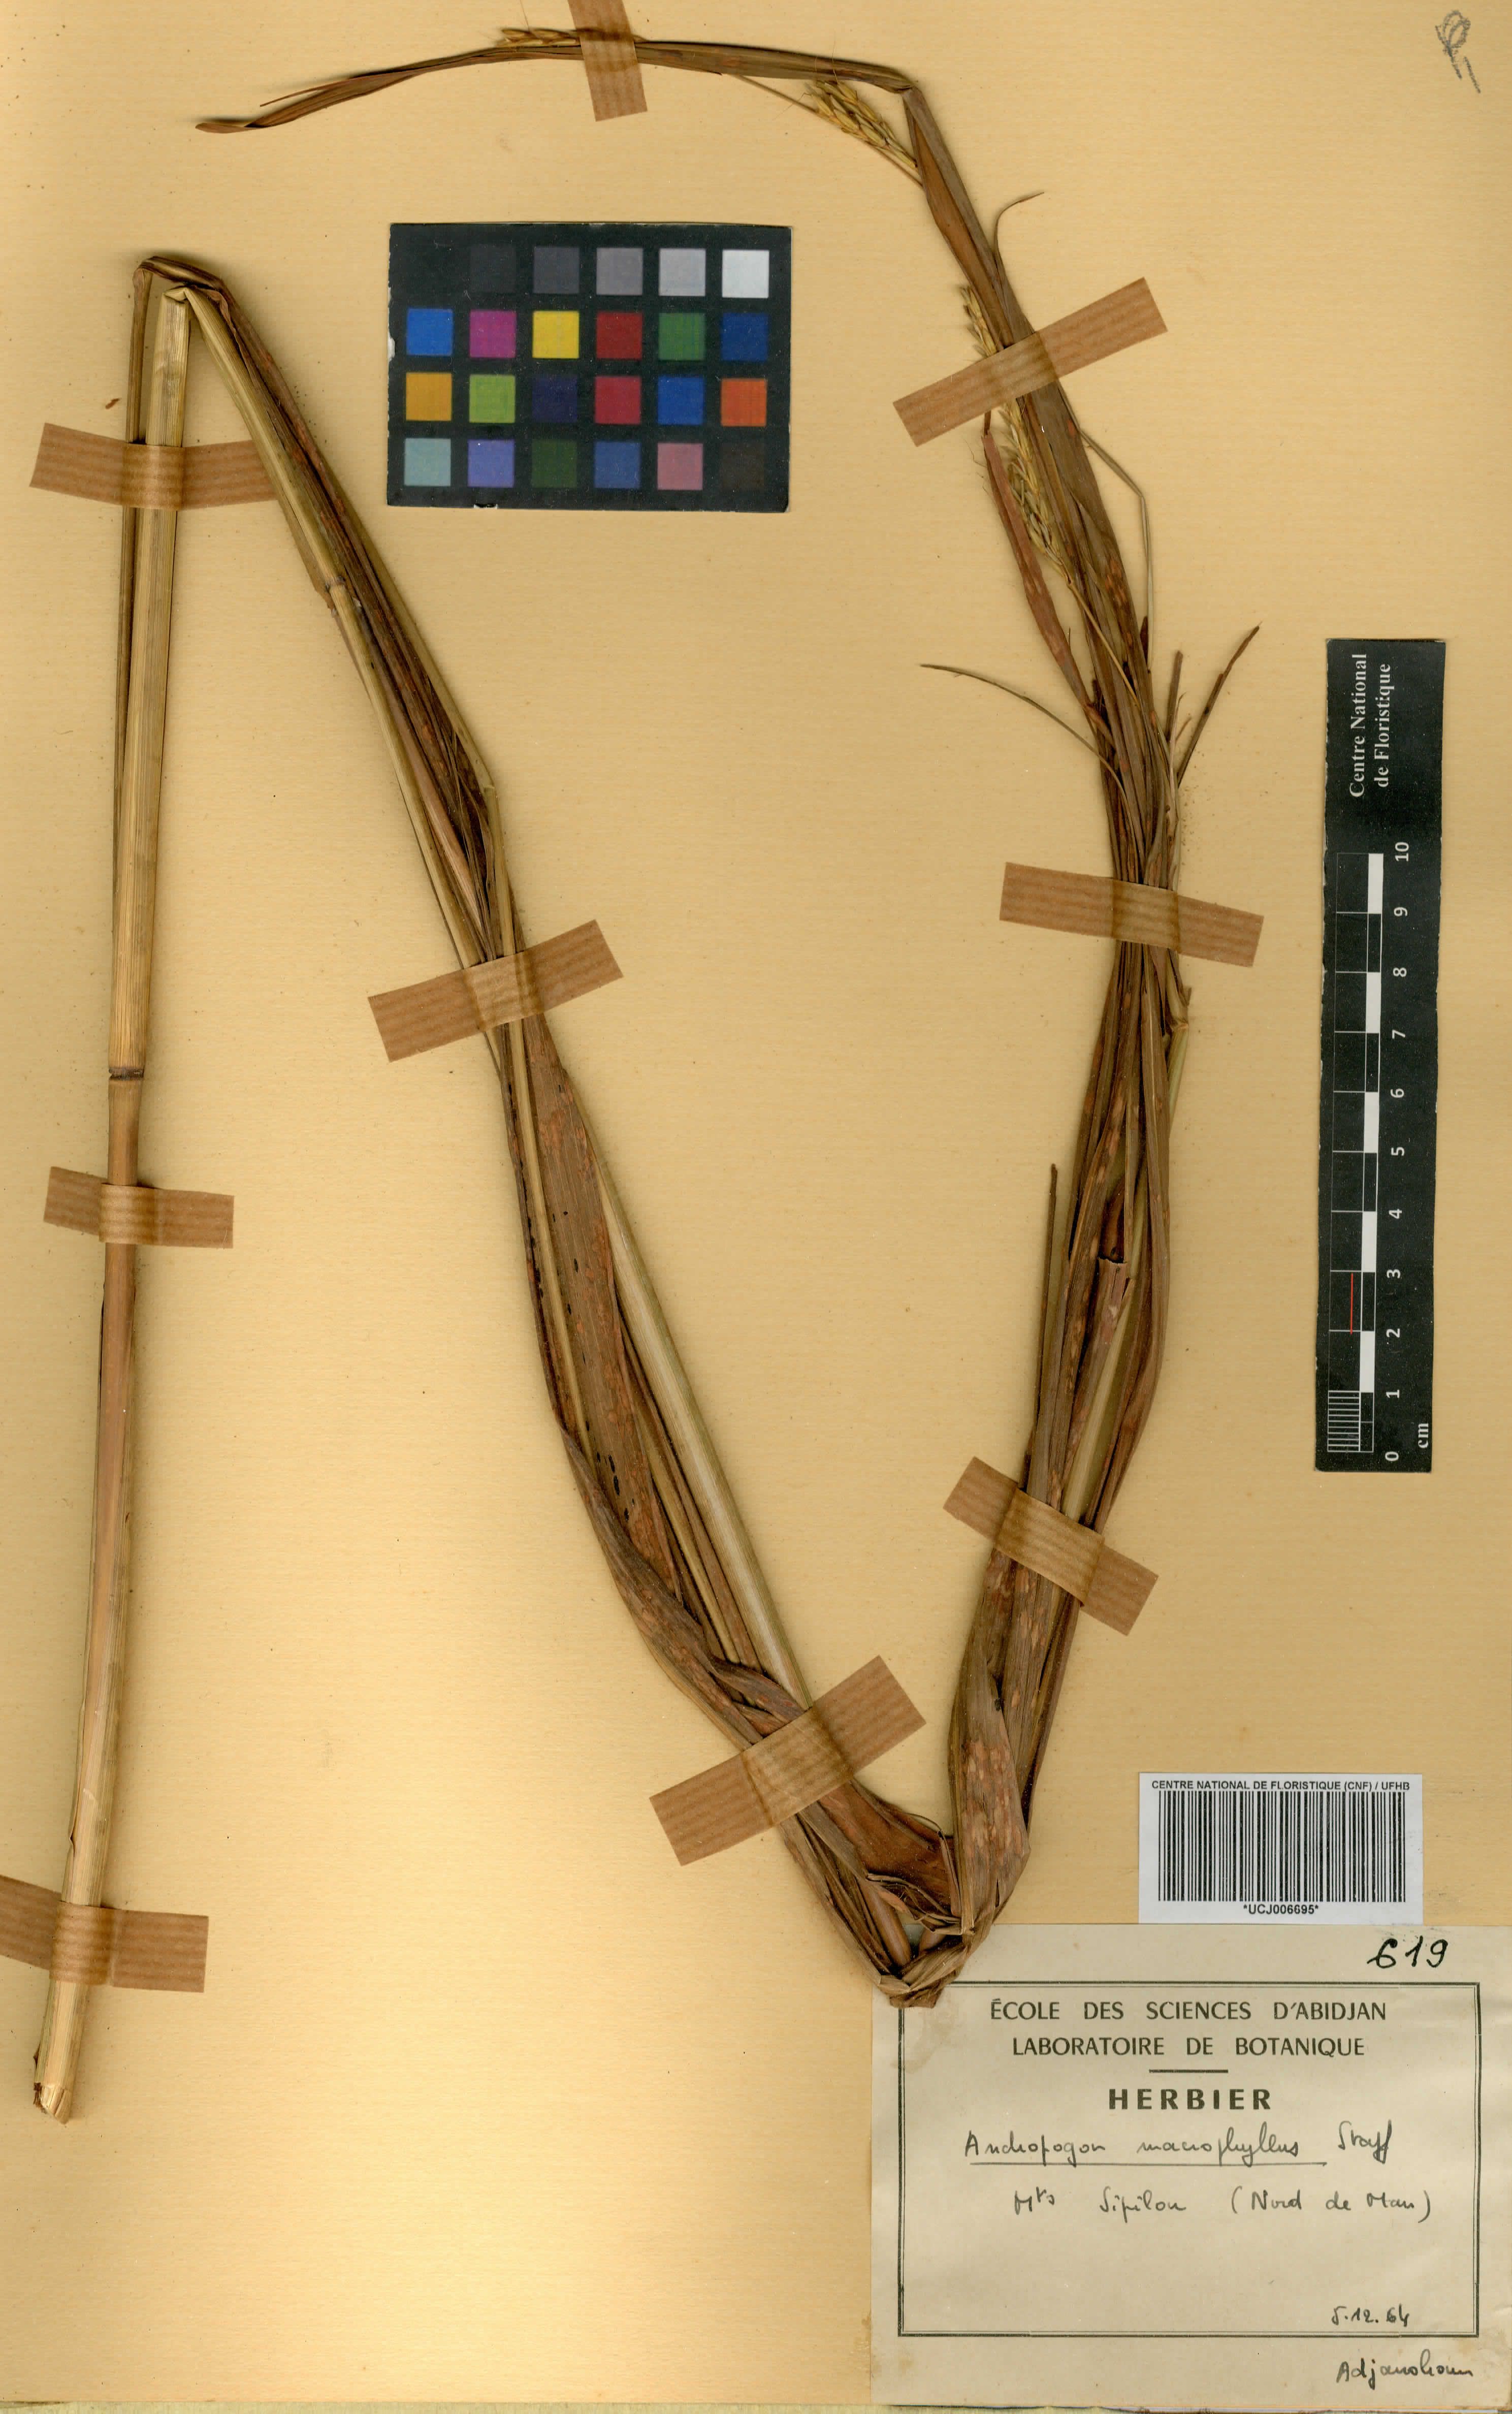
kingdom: Plantae
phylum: Tracheophyta
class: Liliopsida
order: Poales
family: Poaceae
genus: Andropogon
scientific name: Andropogon macrophyllus
